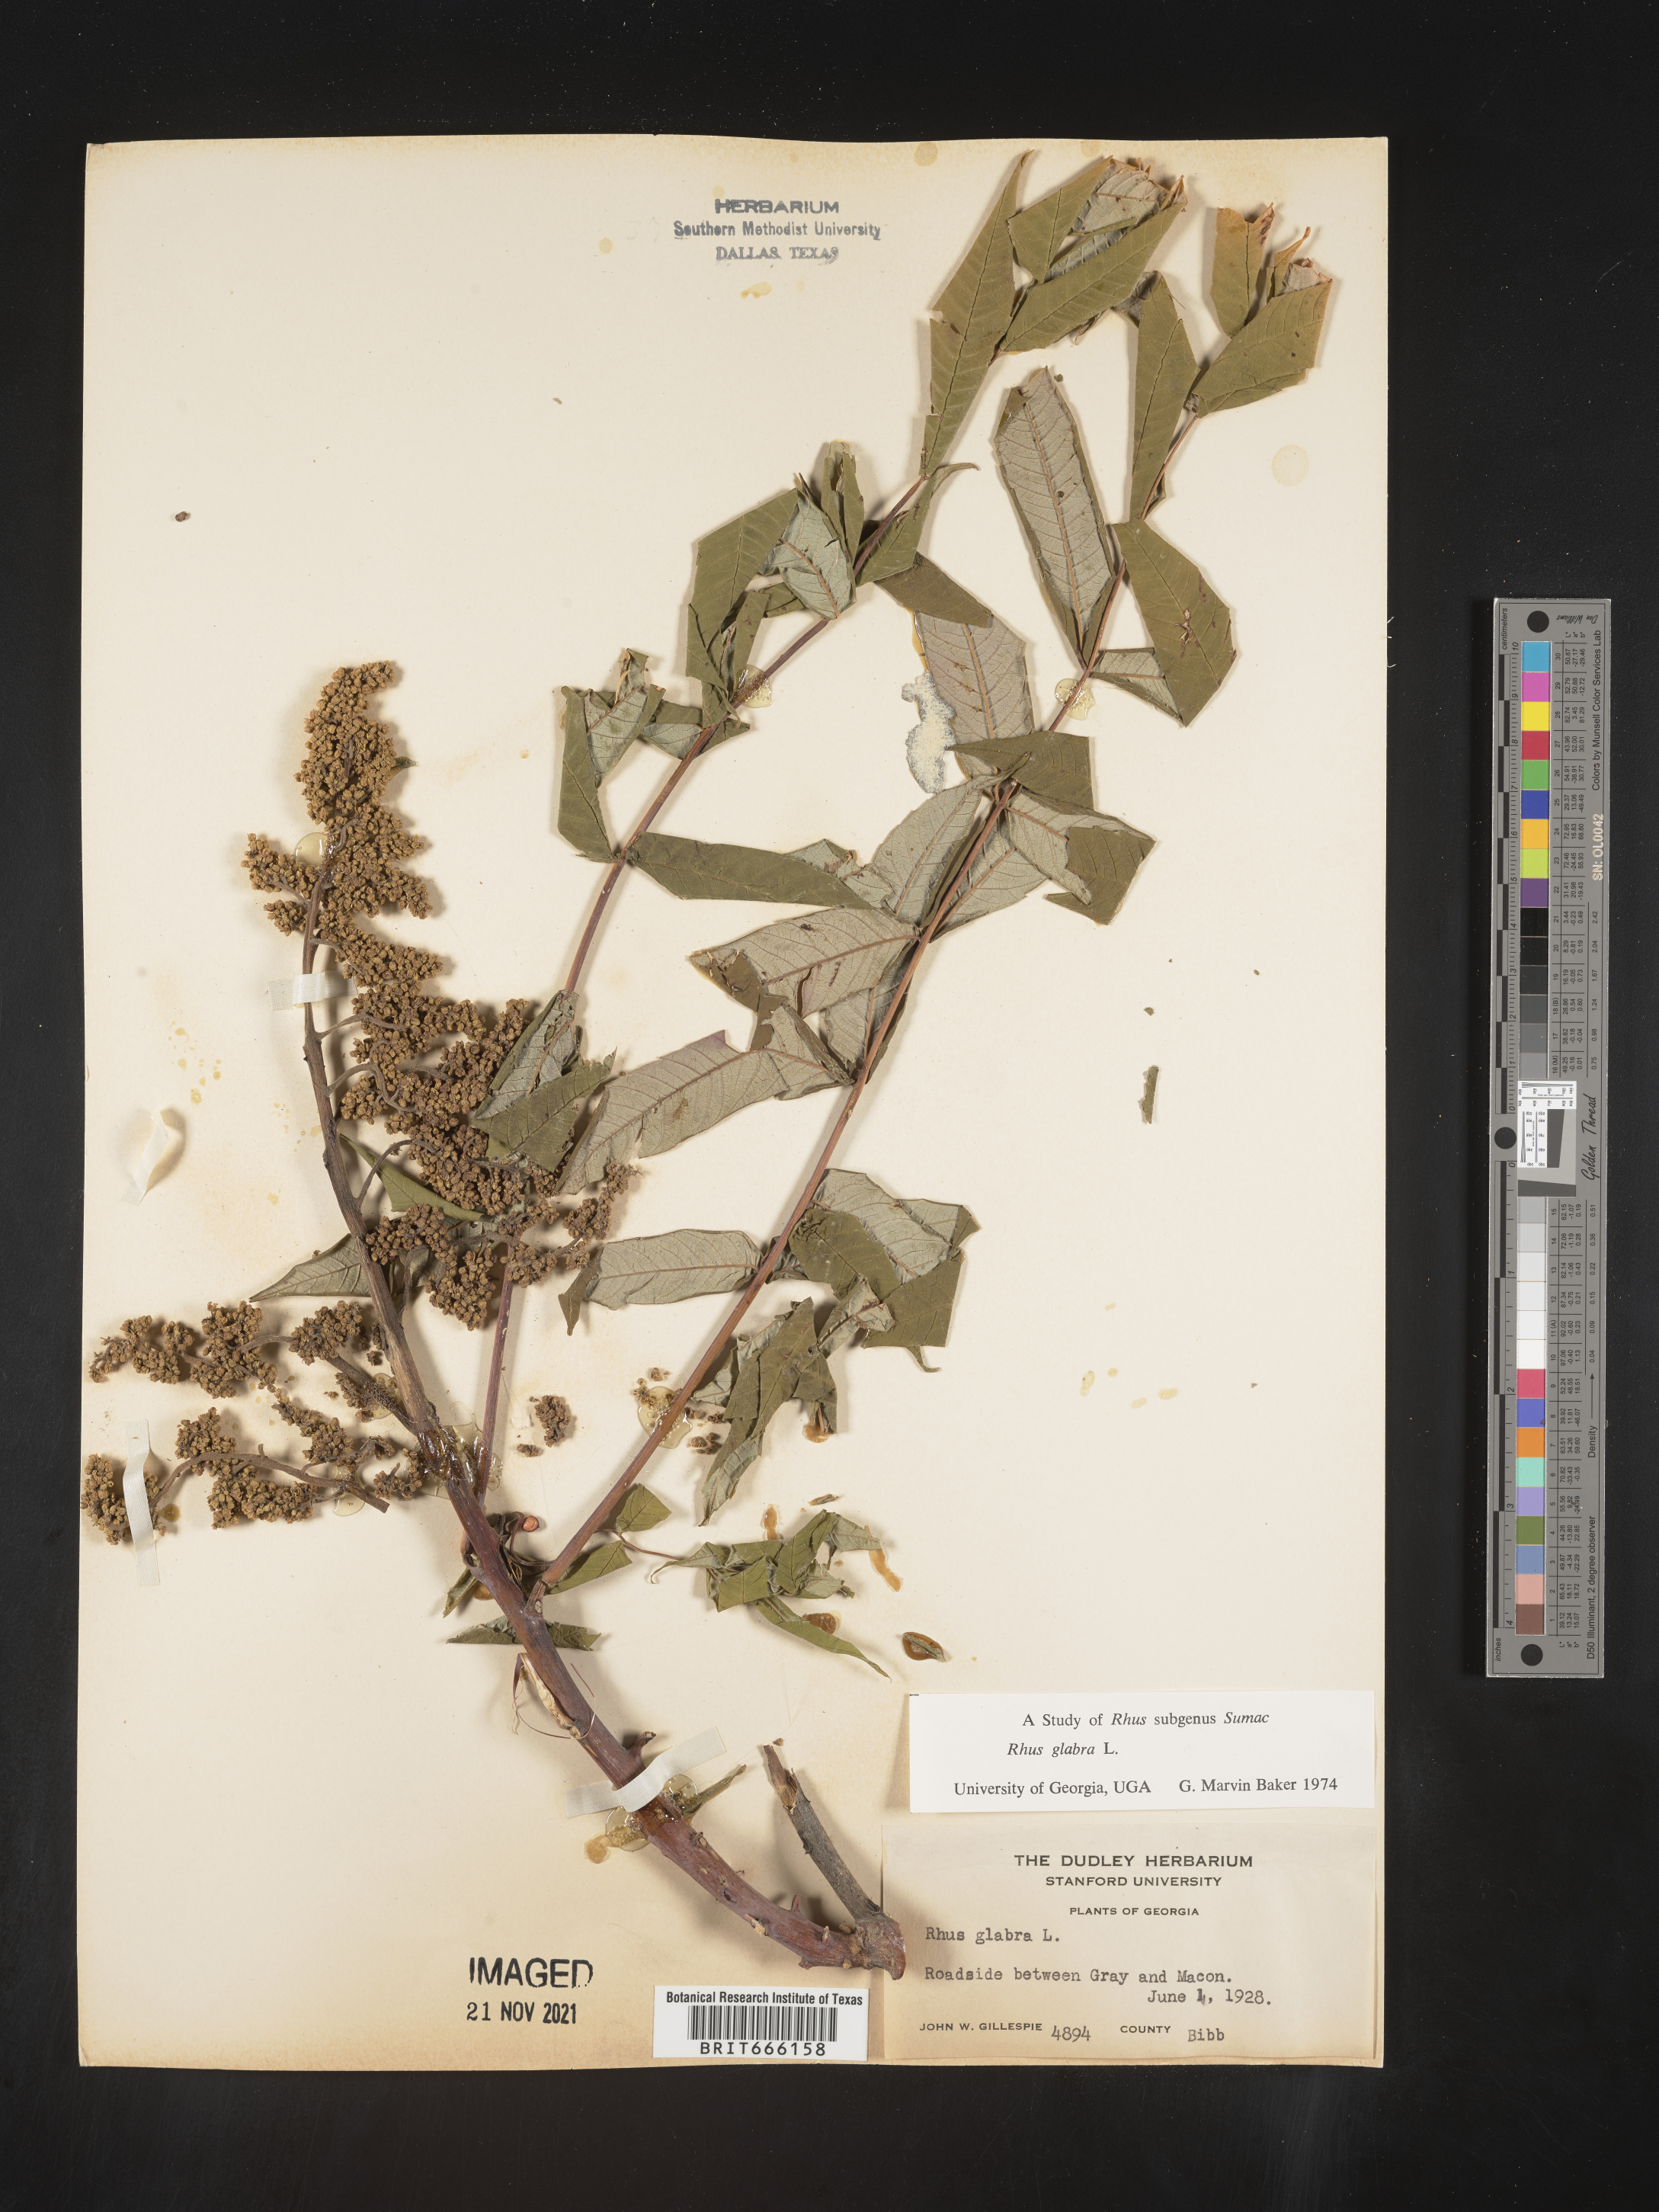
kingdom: Plantae
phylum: Tracheophyta
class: Magnoliopsida
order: Sapindales
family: Anacardiaceae
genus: Rhus
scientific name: Rhus glabra
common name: Scarlet sumac
